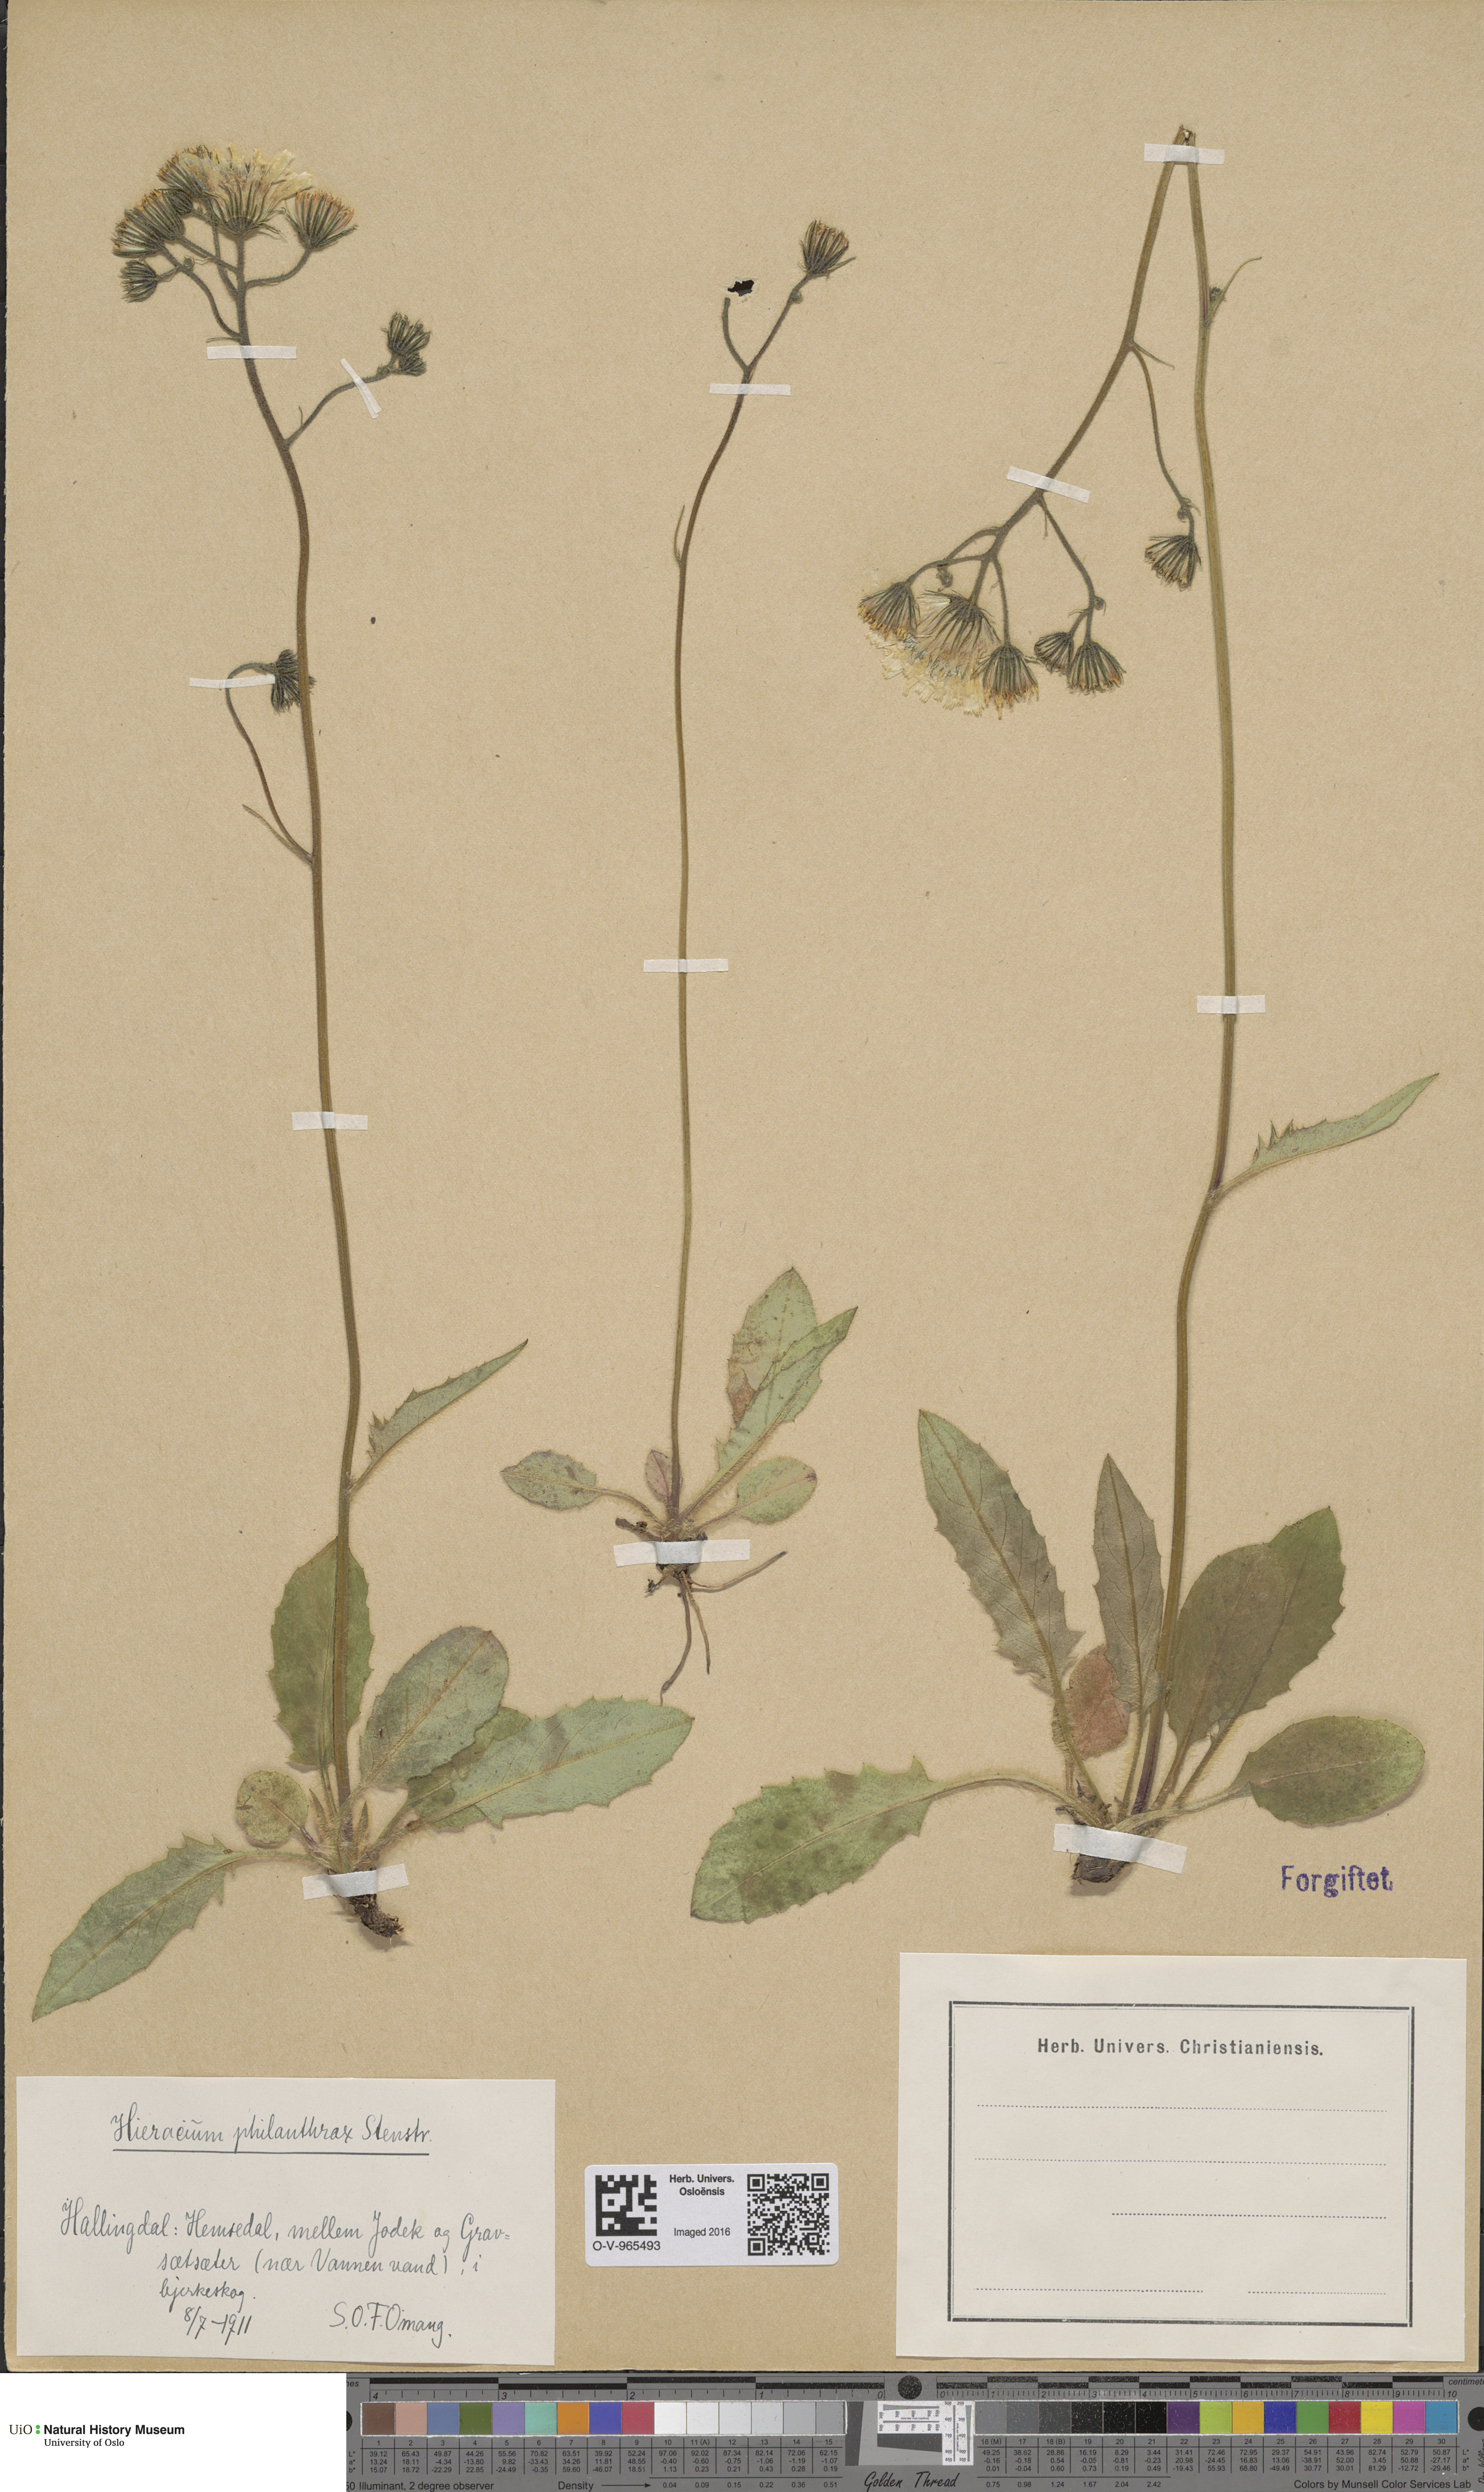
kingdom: Plantae
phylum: Tracheophyta
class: Magnoliopsida
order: Asterales
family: Asteraceae
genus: Hieracium
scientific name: Hieracium philanthrax
